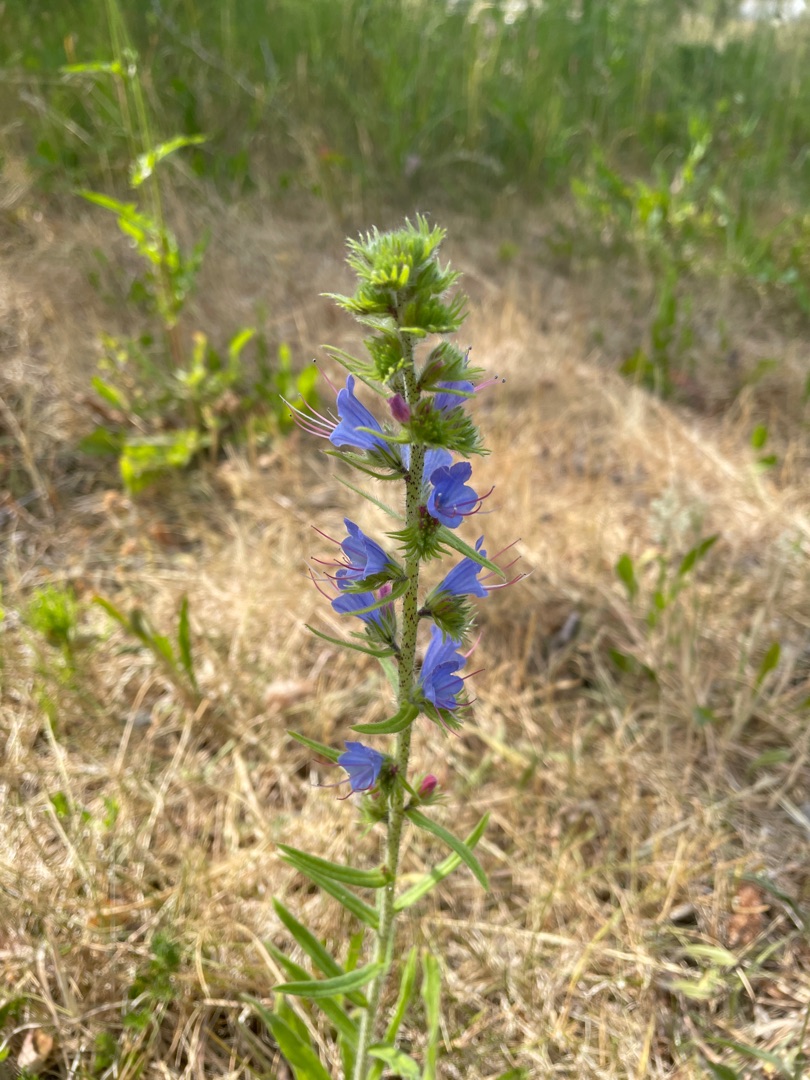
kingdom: Plantae
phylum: Tracheophyta
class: Magnoliopsida
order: Boraginales
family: Boraginaceae
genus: Echium
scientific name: Echium vulgare
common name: Slangehoved
